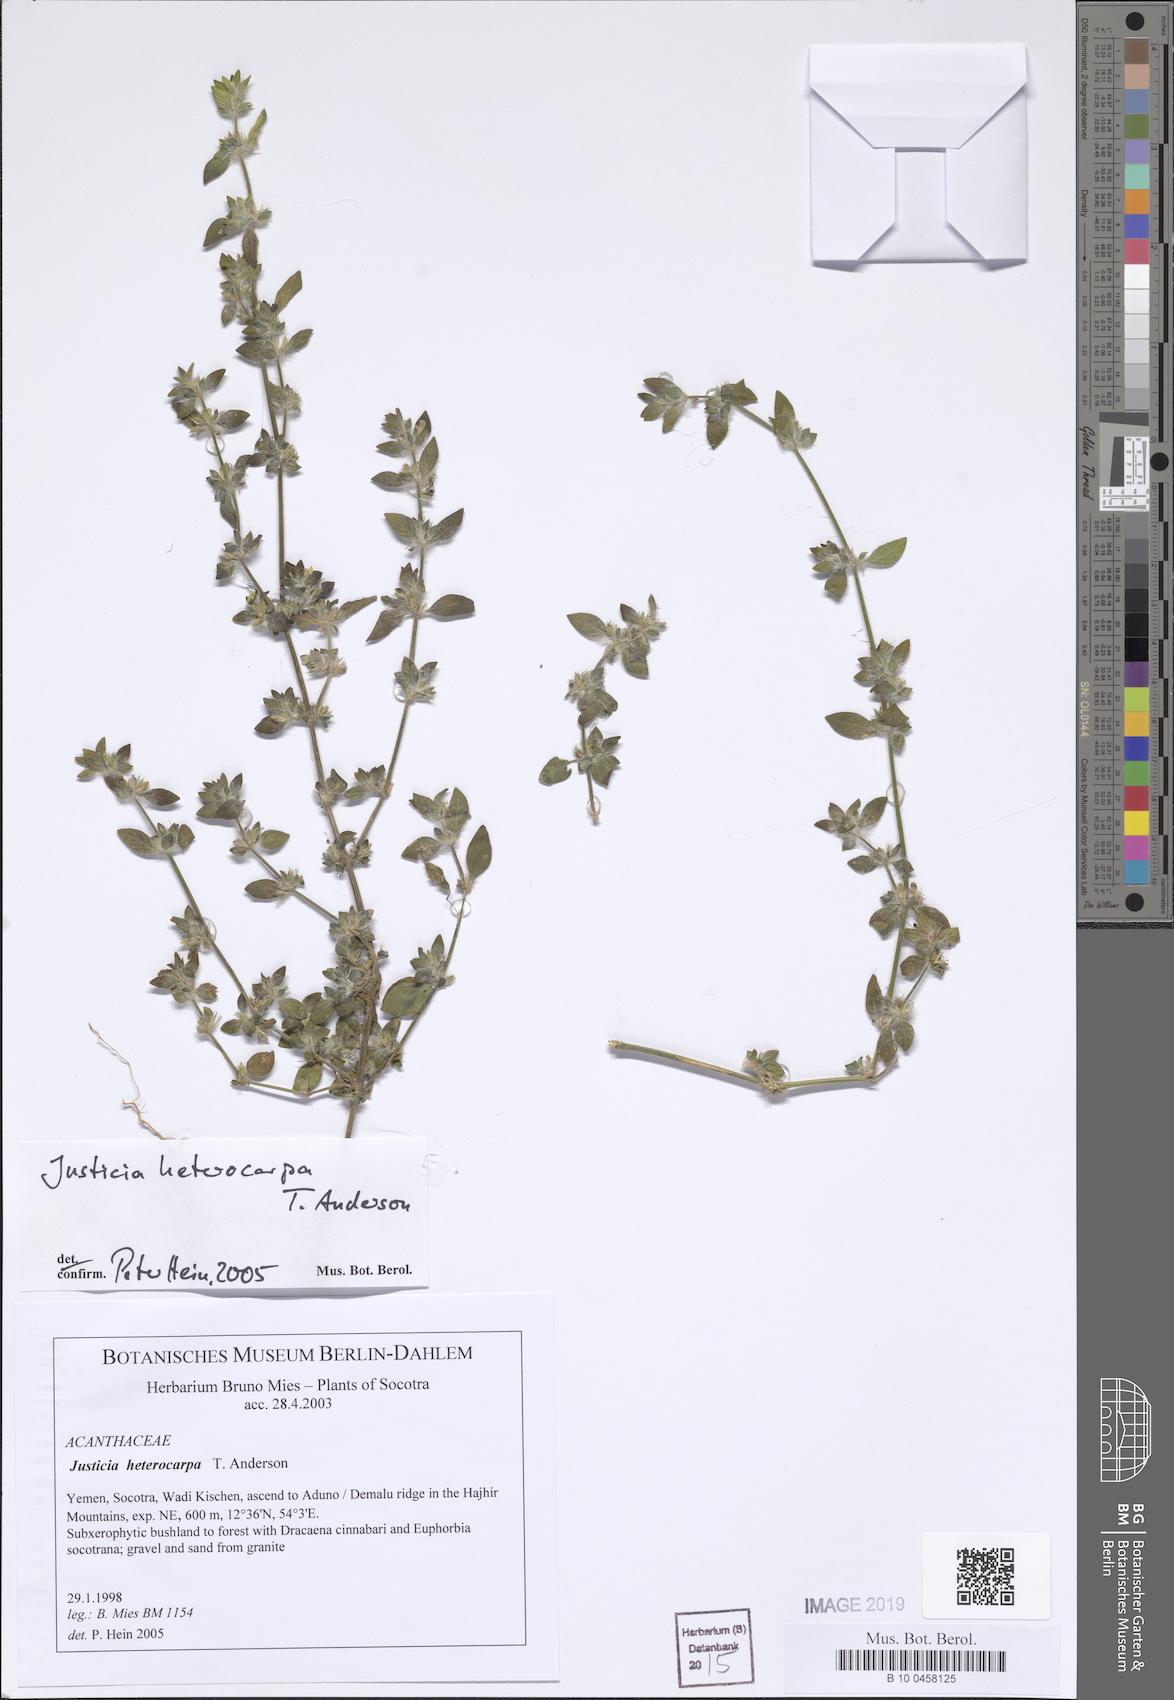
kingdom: Plantae
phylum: Tracheophyta
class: Magnoliopsida
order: Lamiales
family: Acanthaceae
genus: Justicia
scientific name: Justicia heterocarpa
